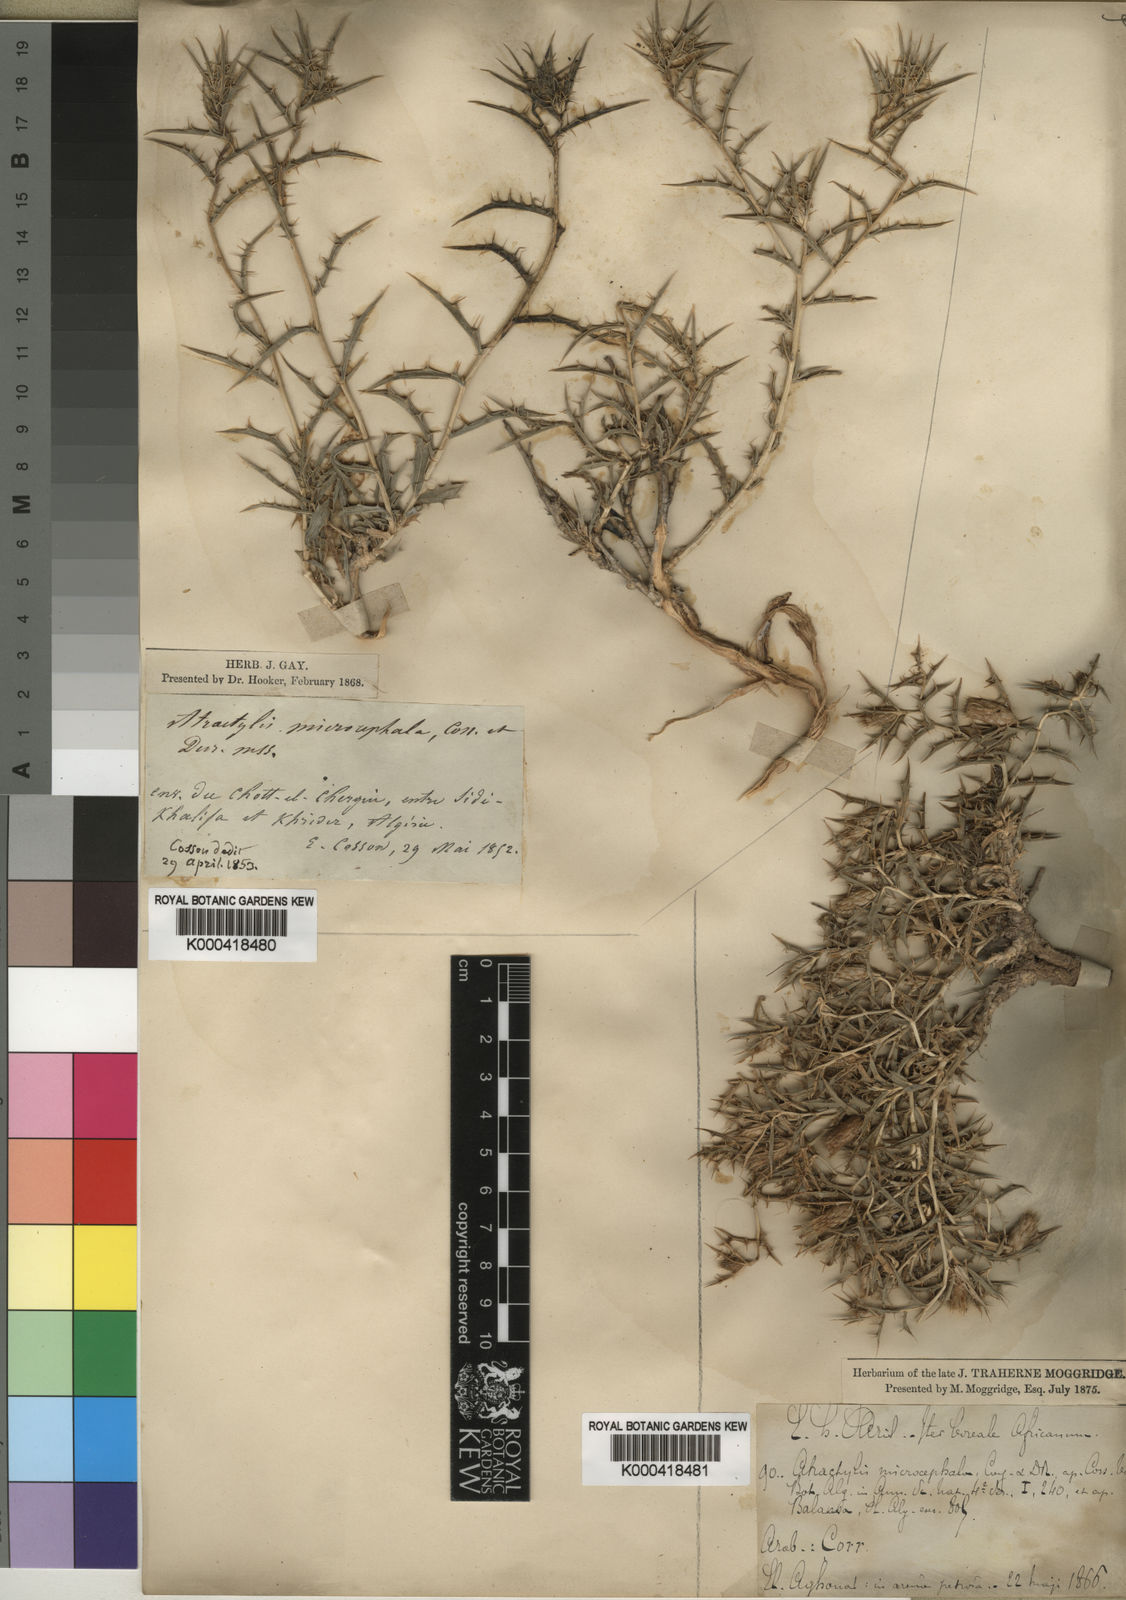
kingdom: Plantae
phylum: Tracheophyta
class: Magnoliopsida
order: Asterales
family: Asteraceae
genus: Atractylis
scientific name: Atractylis serratuloides
